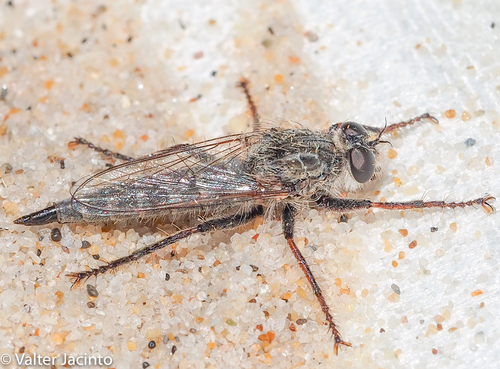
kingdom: Animalia
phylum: Arthropoda
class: Insecta
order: Diptera
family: Asilidae
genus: Machiremisca
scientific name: Machiremisca decipiens
